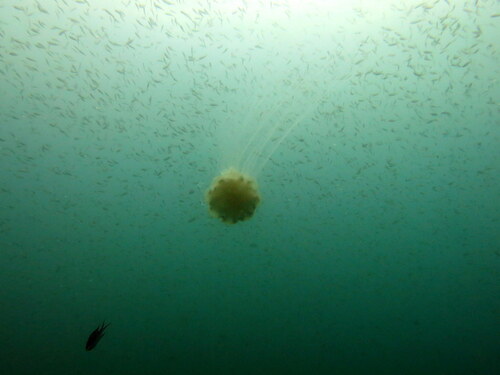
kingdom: Animalia
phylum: Cnidaria
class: Scyphozoa
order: Semaeostomeae
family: Cyaneidae
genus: Cyanea
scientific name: Cyanea nozakii
